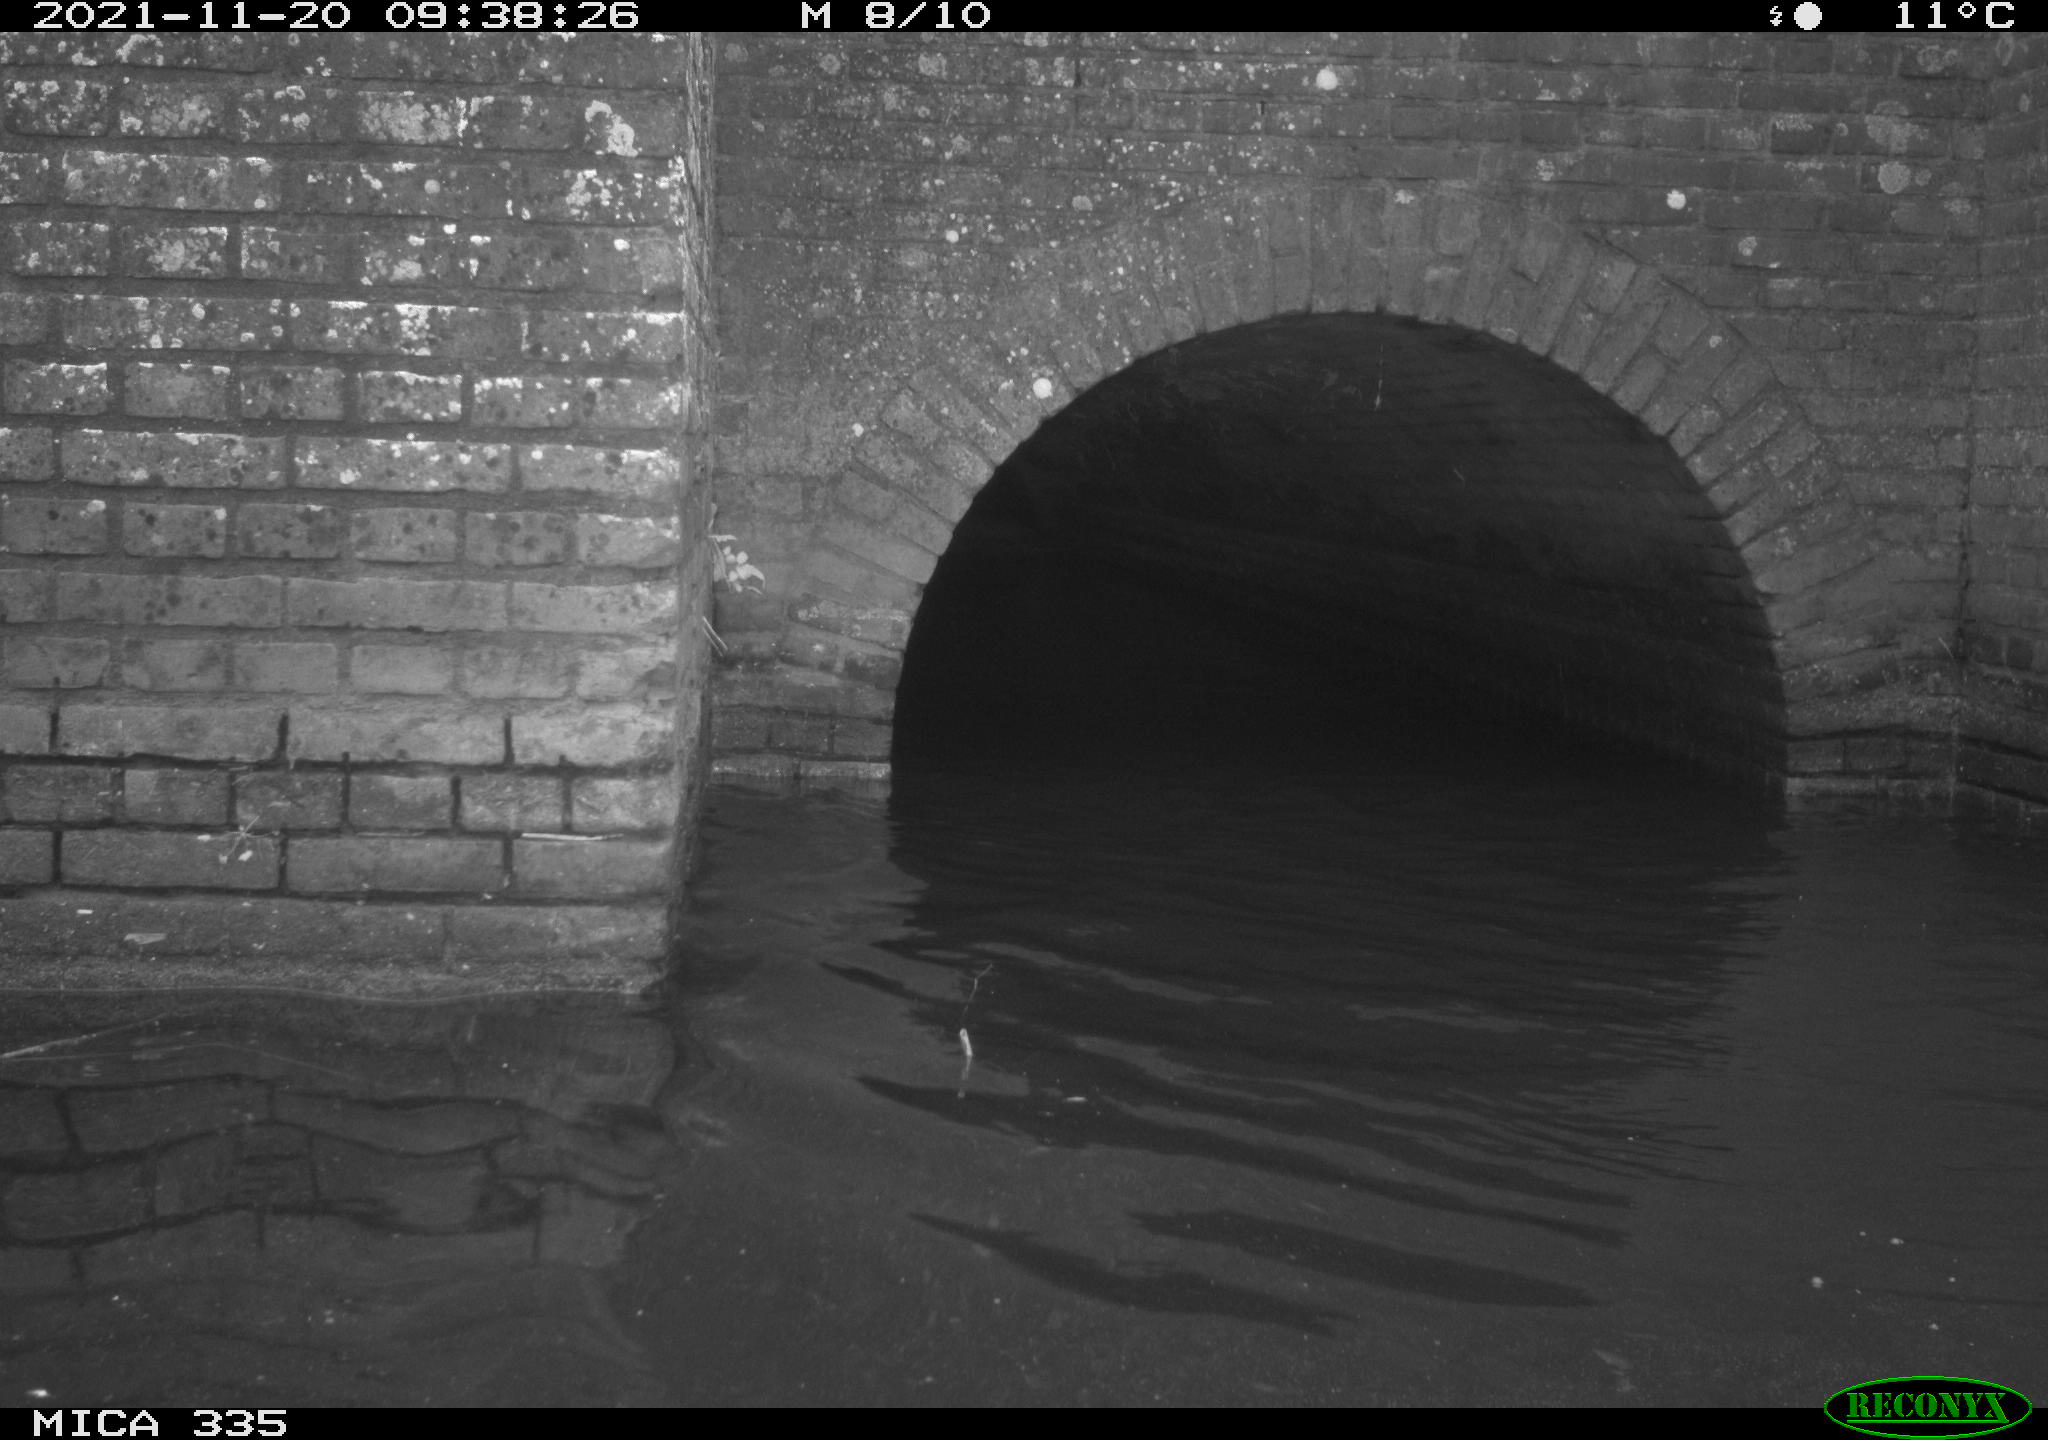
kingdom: Animalia
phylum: Chordata
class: Aves
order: Gruiformes
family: Rallidae
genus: Fulica
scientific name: Fulica atra
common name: Eurasian coot
